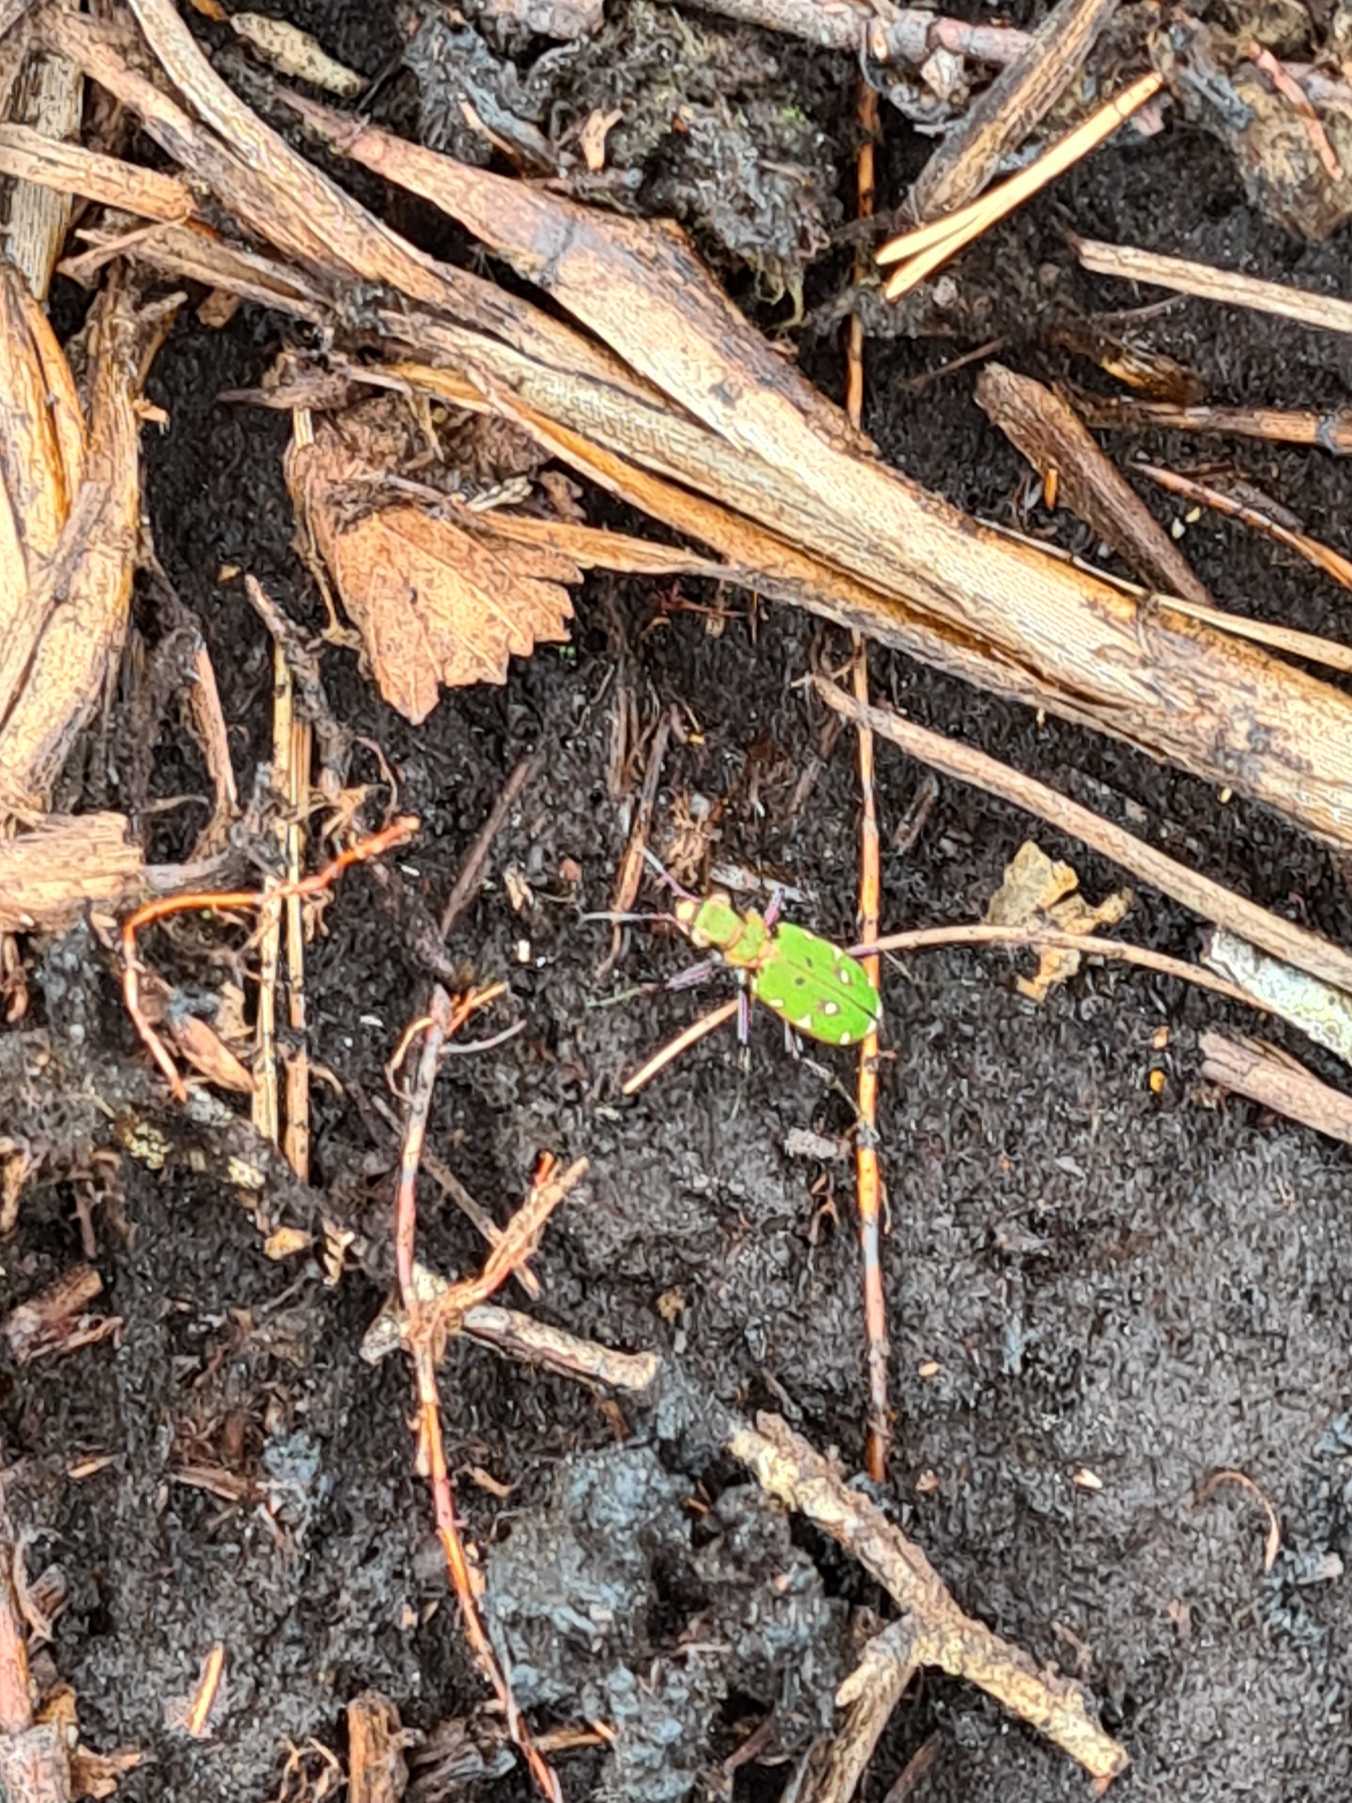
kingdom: Animalia
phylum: Arthropoda
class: Insecta
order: Coleoptera
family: Carabidae
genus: Cicindela
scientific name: Cicindela campestris
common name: Grøn sandspringer
